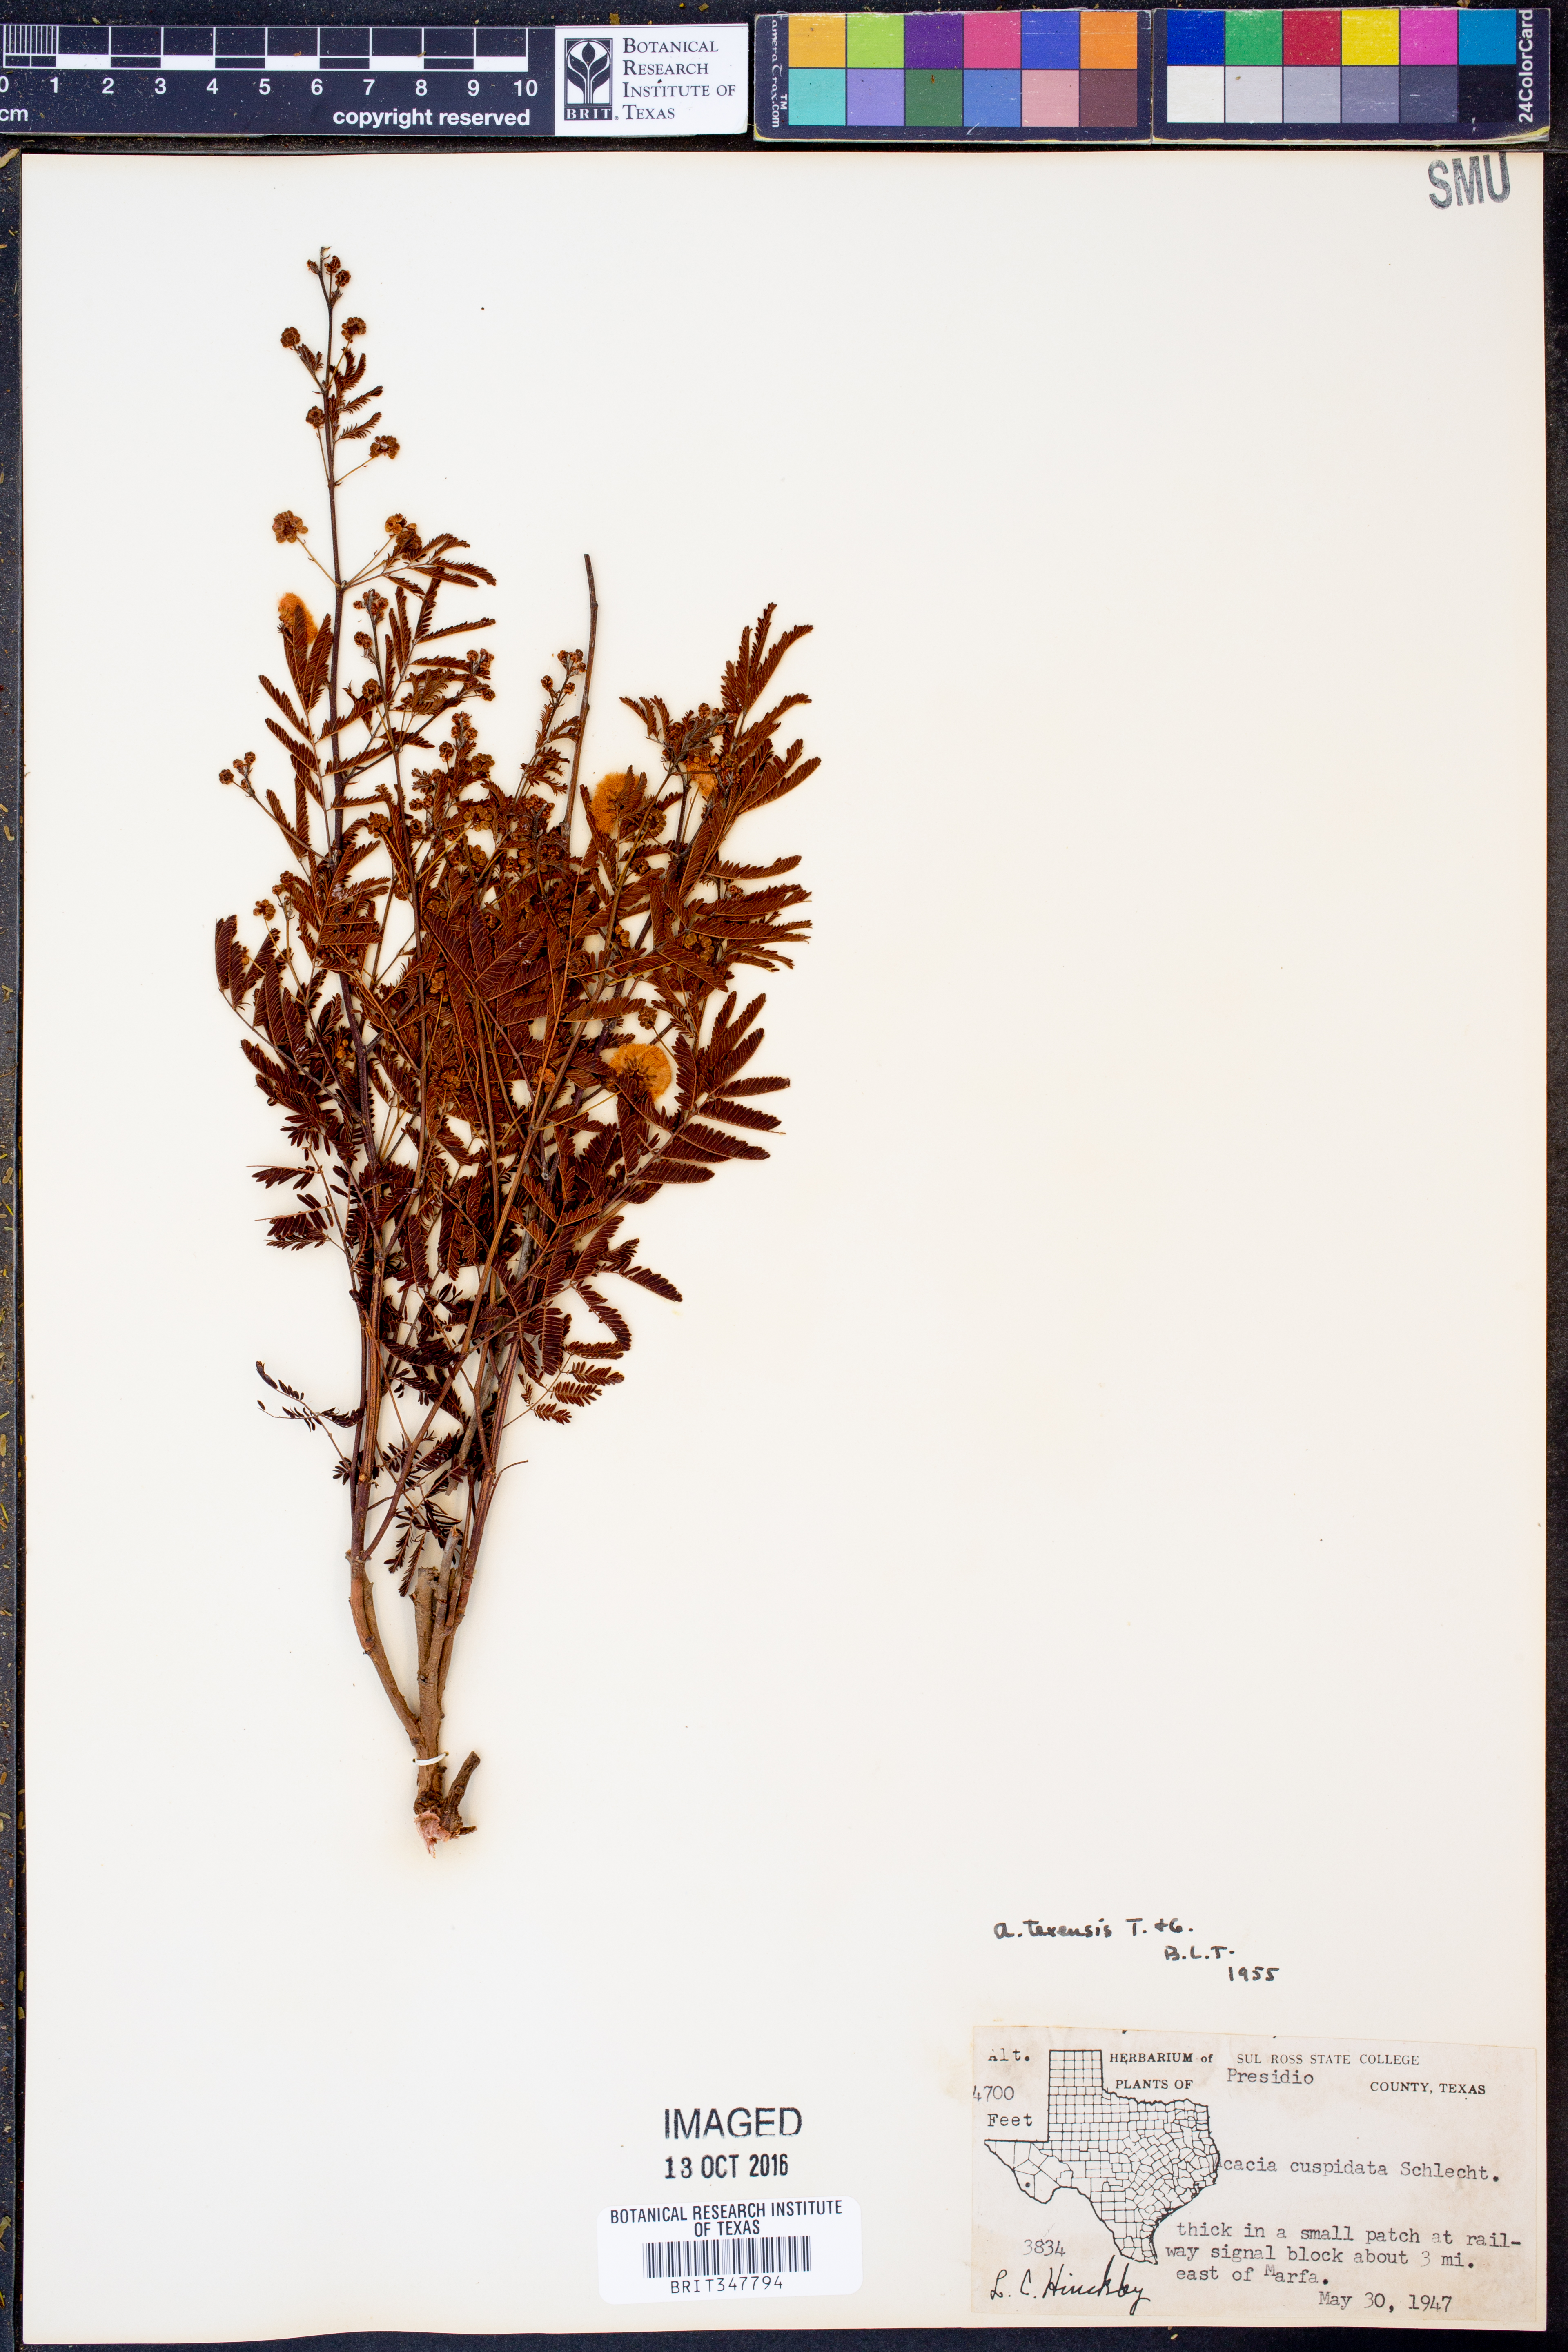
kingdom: Plantae
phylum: Tracheophyta
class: Magnoliopsida
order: Fabales
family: Fabaceae
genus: Acaciella
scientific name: Acaciella angustissima
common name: Prairie acacia
